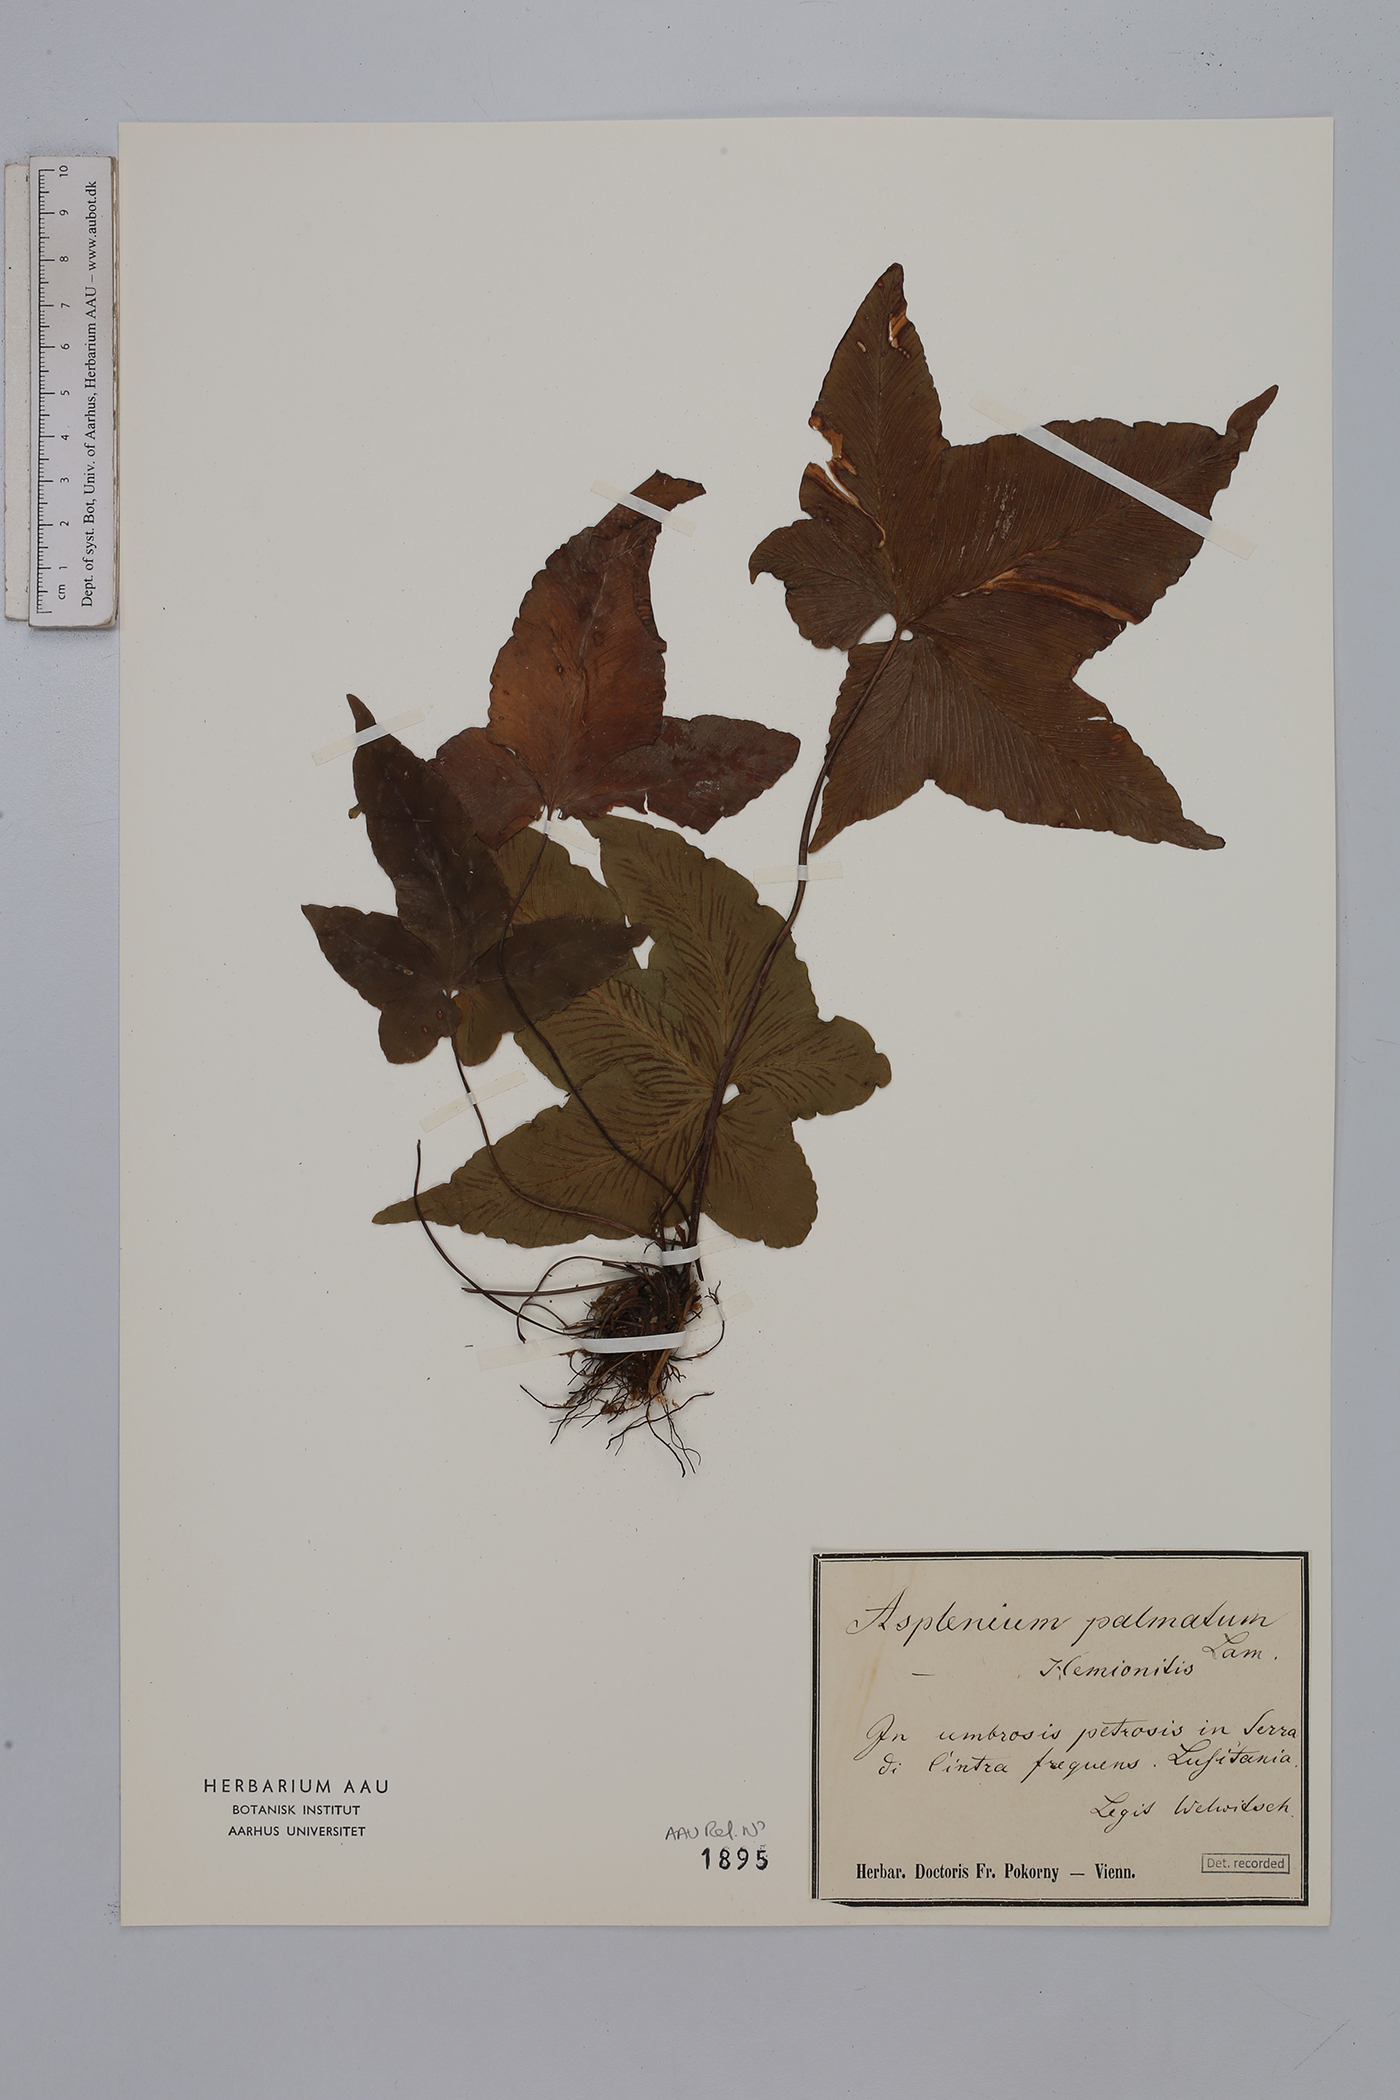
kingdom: Plantae
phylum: Tracheophyta
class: Polypodiopsida
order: Polypodiales
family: Aspleniaceae
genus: Asplenium
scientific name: Asplenium hemionitis
